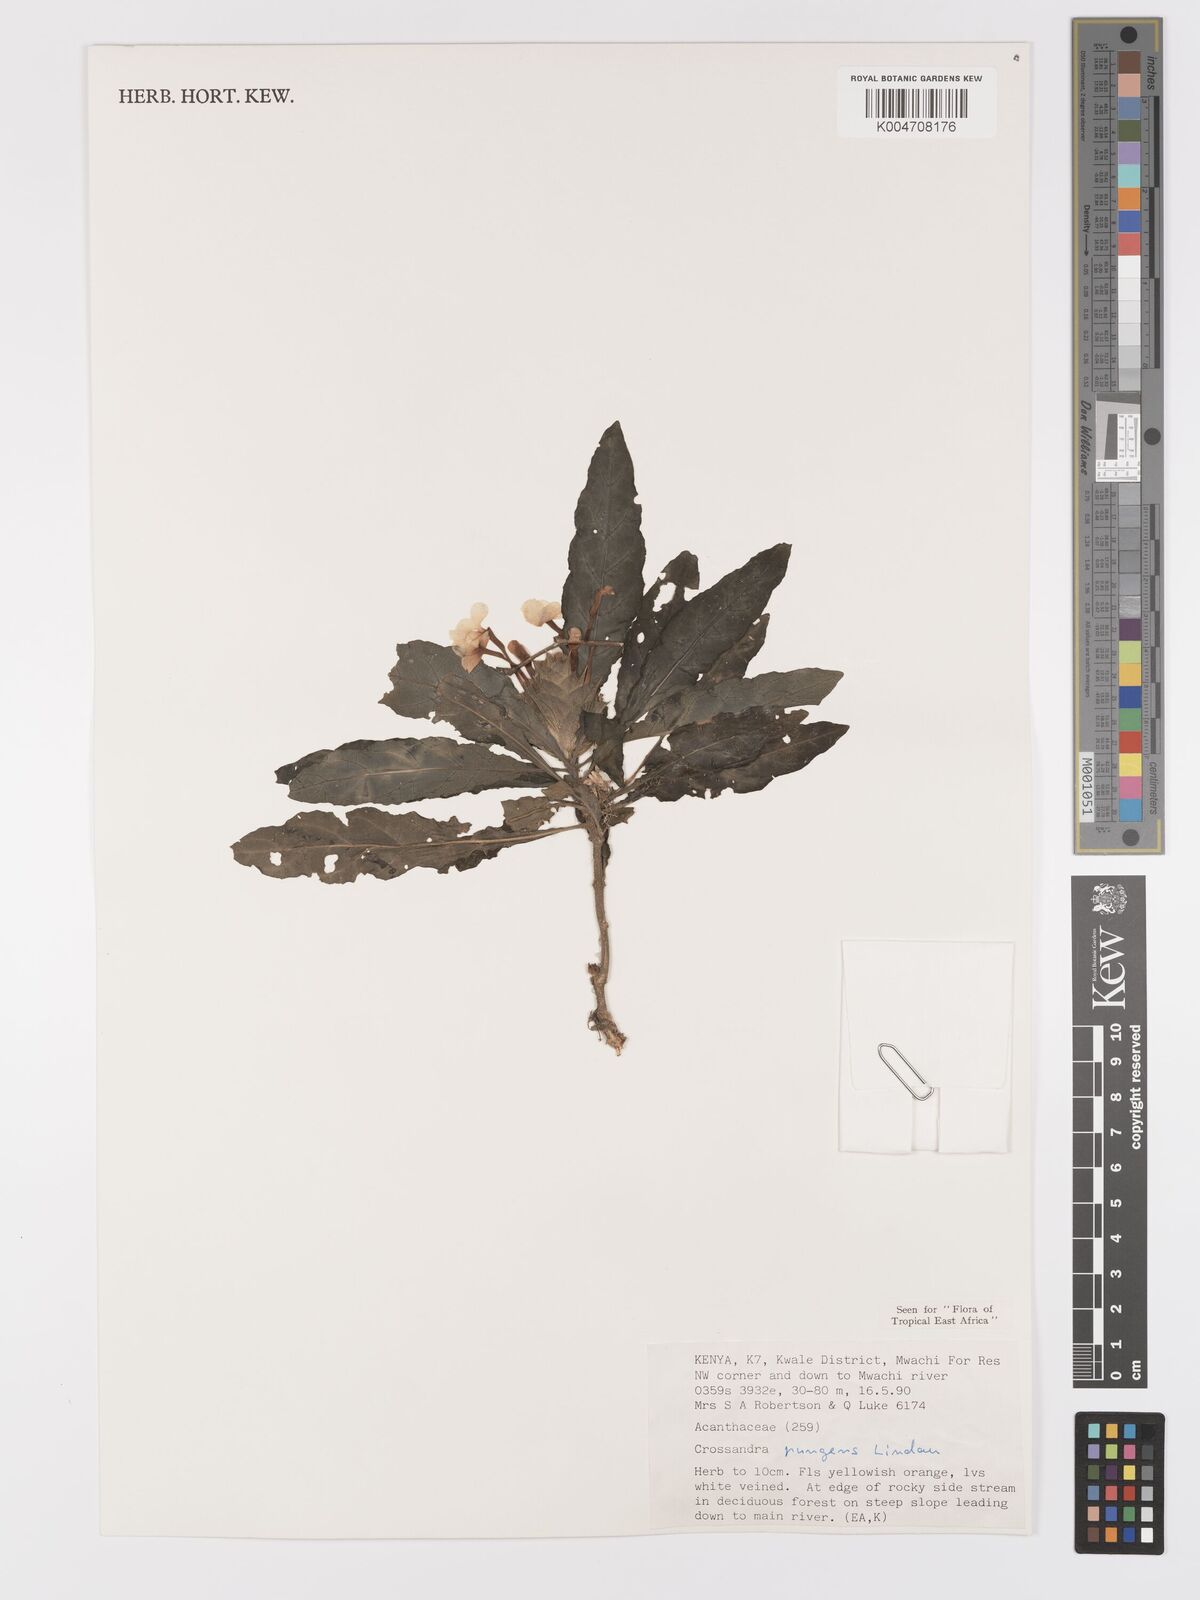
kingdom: Plantae
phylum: Tracheophyta
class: Magnoliopsida
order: Lamiales
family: Acanthaceae
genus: Crossandra
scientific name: Crossandra pungens
